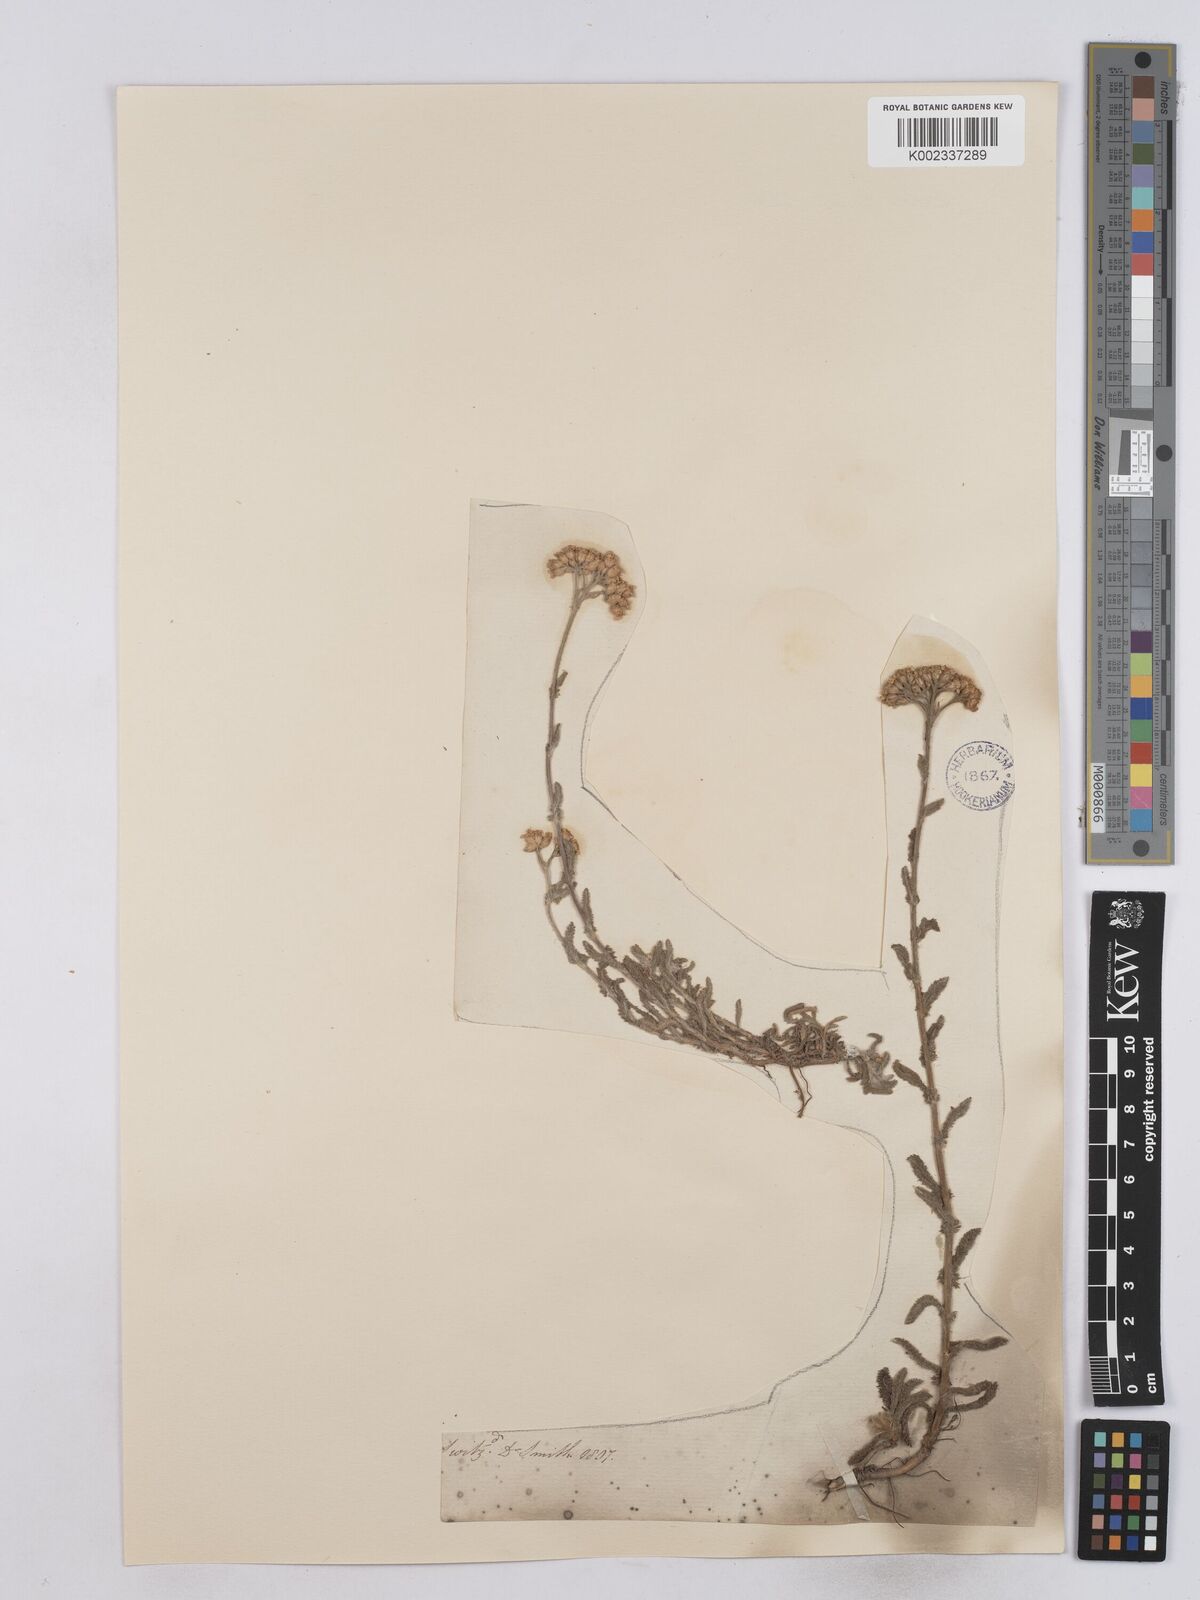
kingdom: Plantae
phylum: Tracheophyta
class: Magnoliopsida
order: Asterales
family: Asteraceae
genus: Achillea
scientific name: Achillea tomentosa
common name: Yellow milfoil
